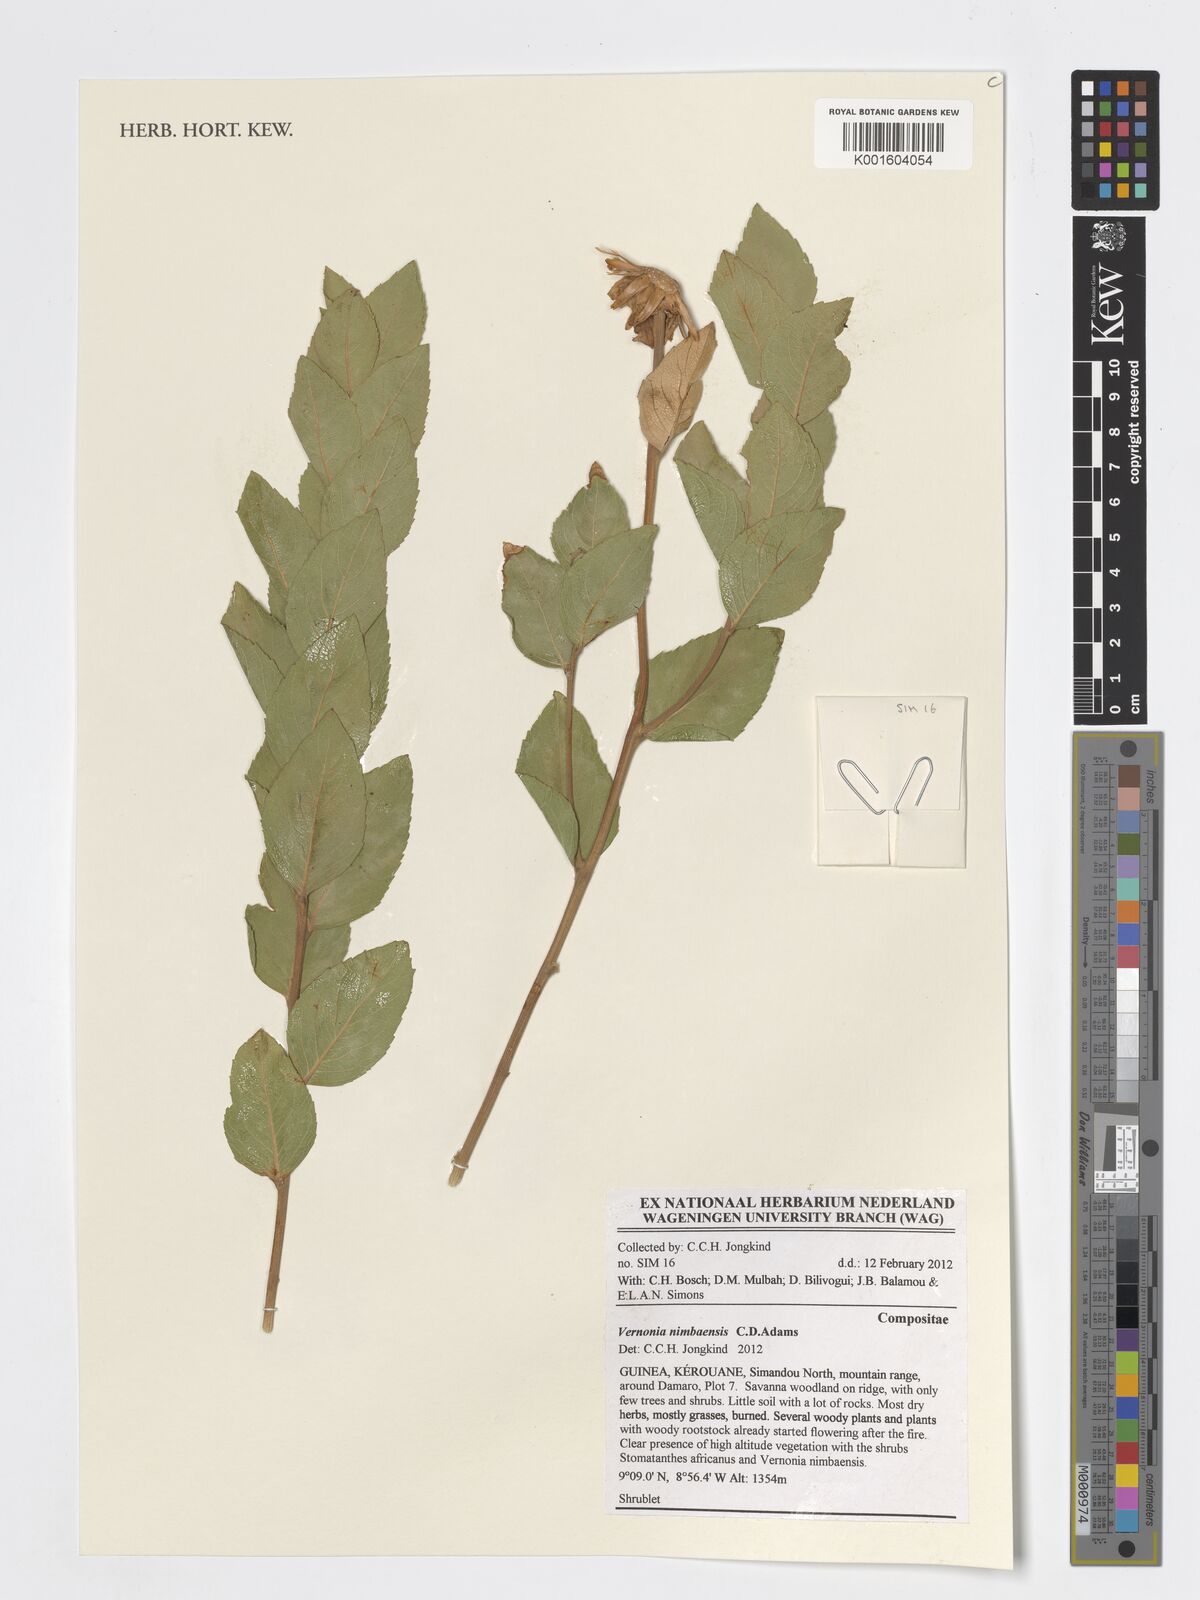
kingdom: Plantae
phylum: Tracheophyta
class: Magnoliopsida
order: Asterales
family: Asteraceae
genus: Baccharoides
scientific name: Baccharoides nimbaensis
